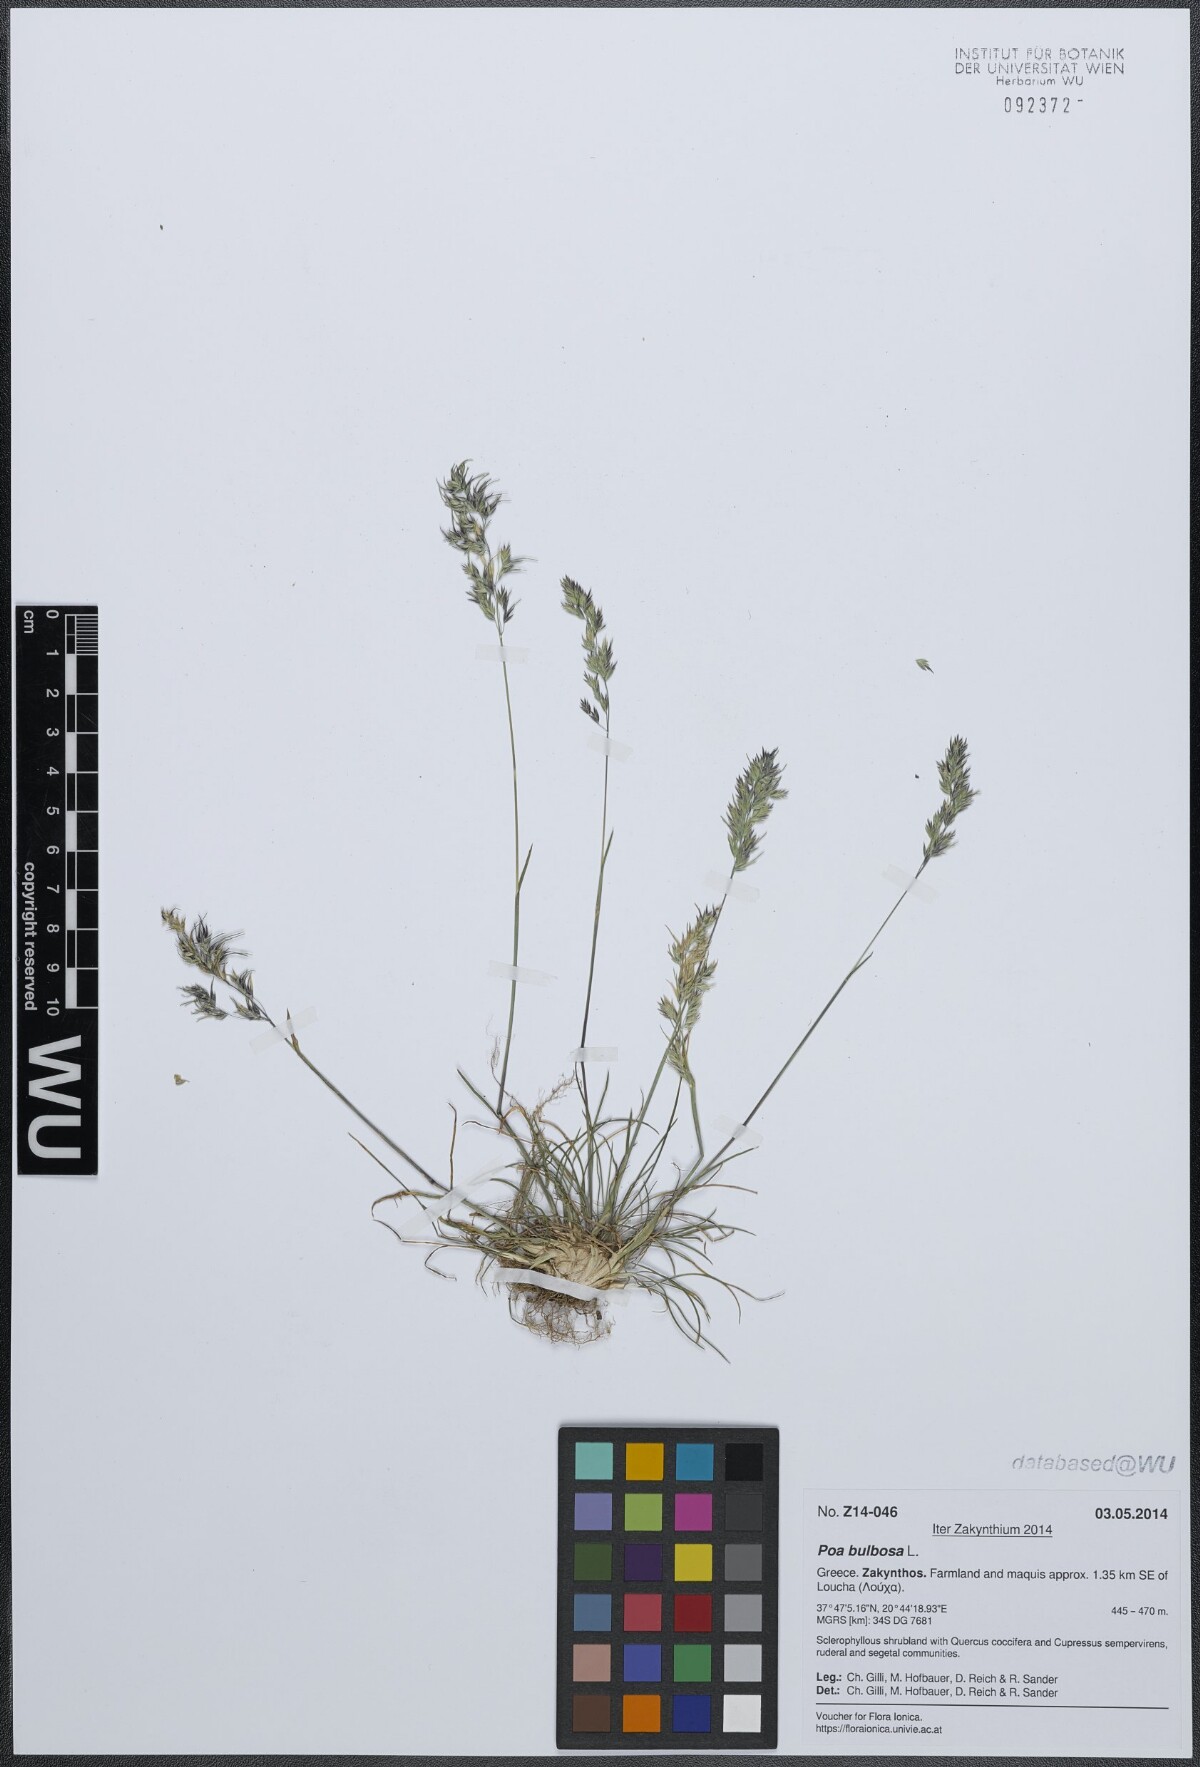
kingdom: Plantae
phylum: Tracheophyta
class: Liliopsida
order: Poales
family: Poaceae
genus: Poa
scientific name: Poa bulbosa
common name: Bulbous bluegrass
